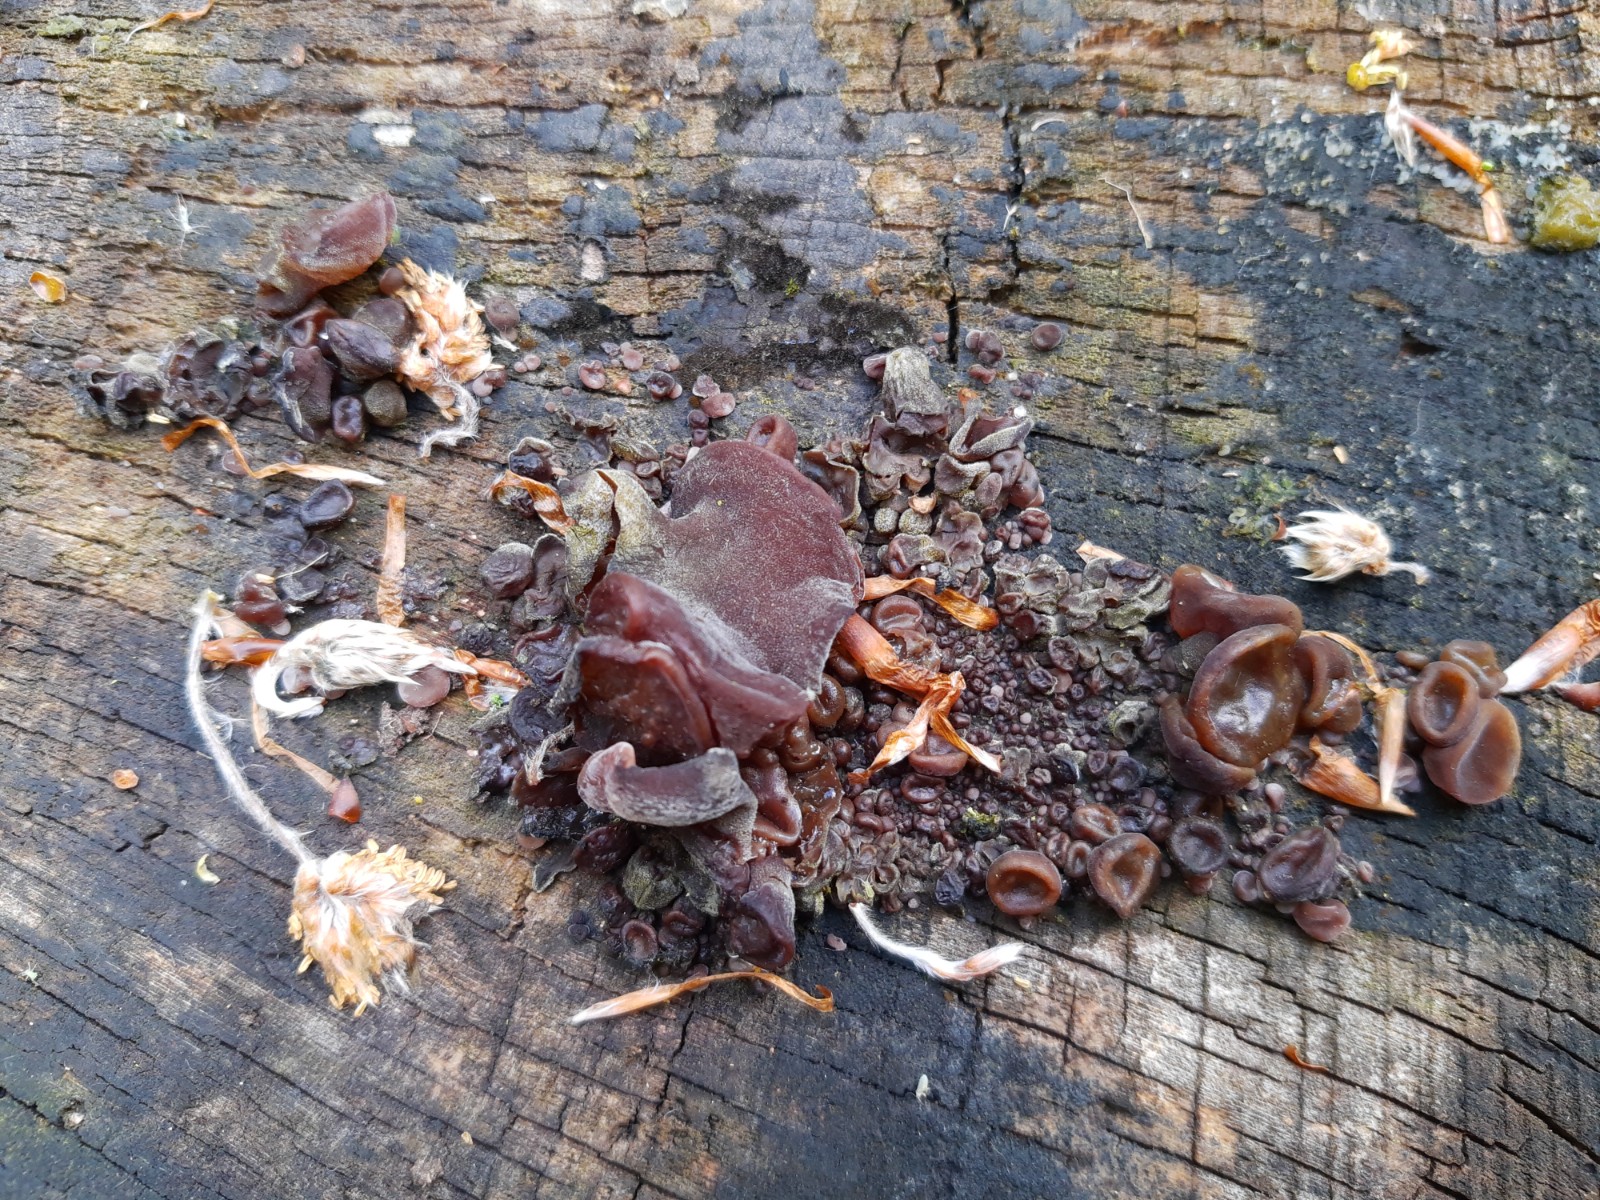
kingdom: Fungi
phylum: Basidiomycota
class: Agaricomycetes
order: Auriculariales
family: Auriculariaceae
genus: Auricularia
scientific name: Auricularia auricula-judae
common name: almindelig judasøre
